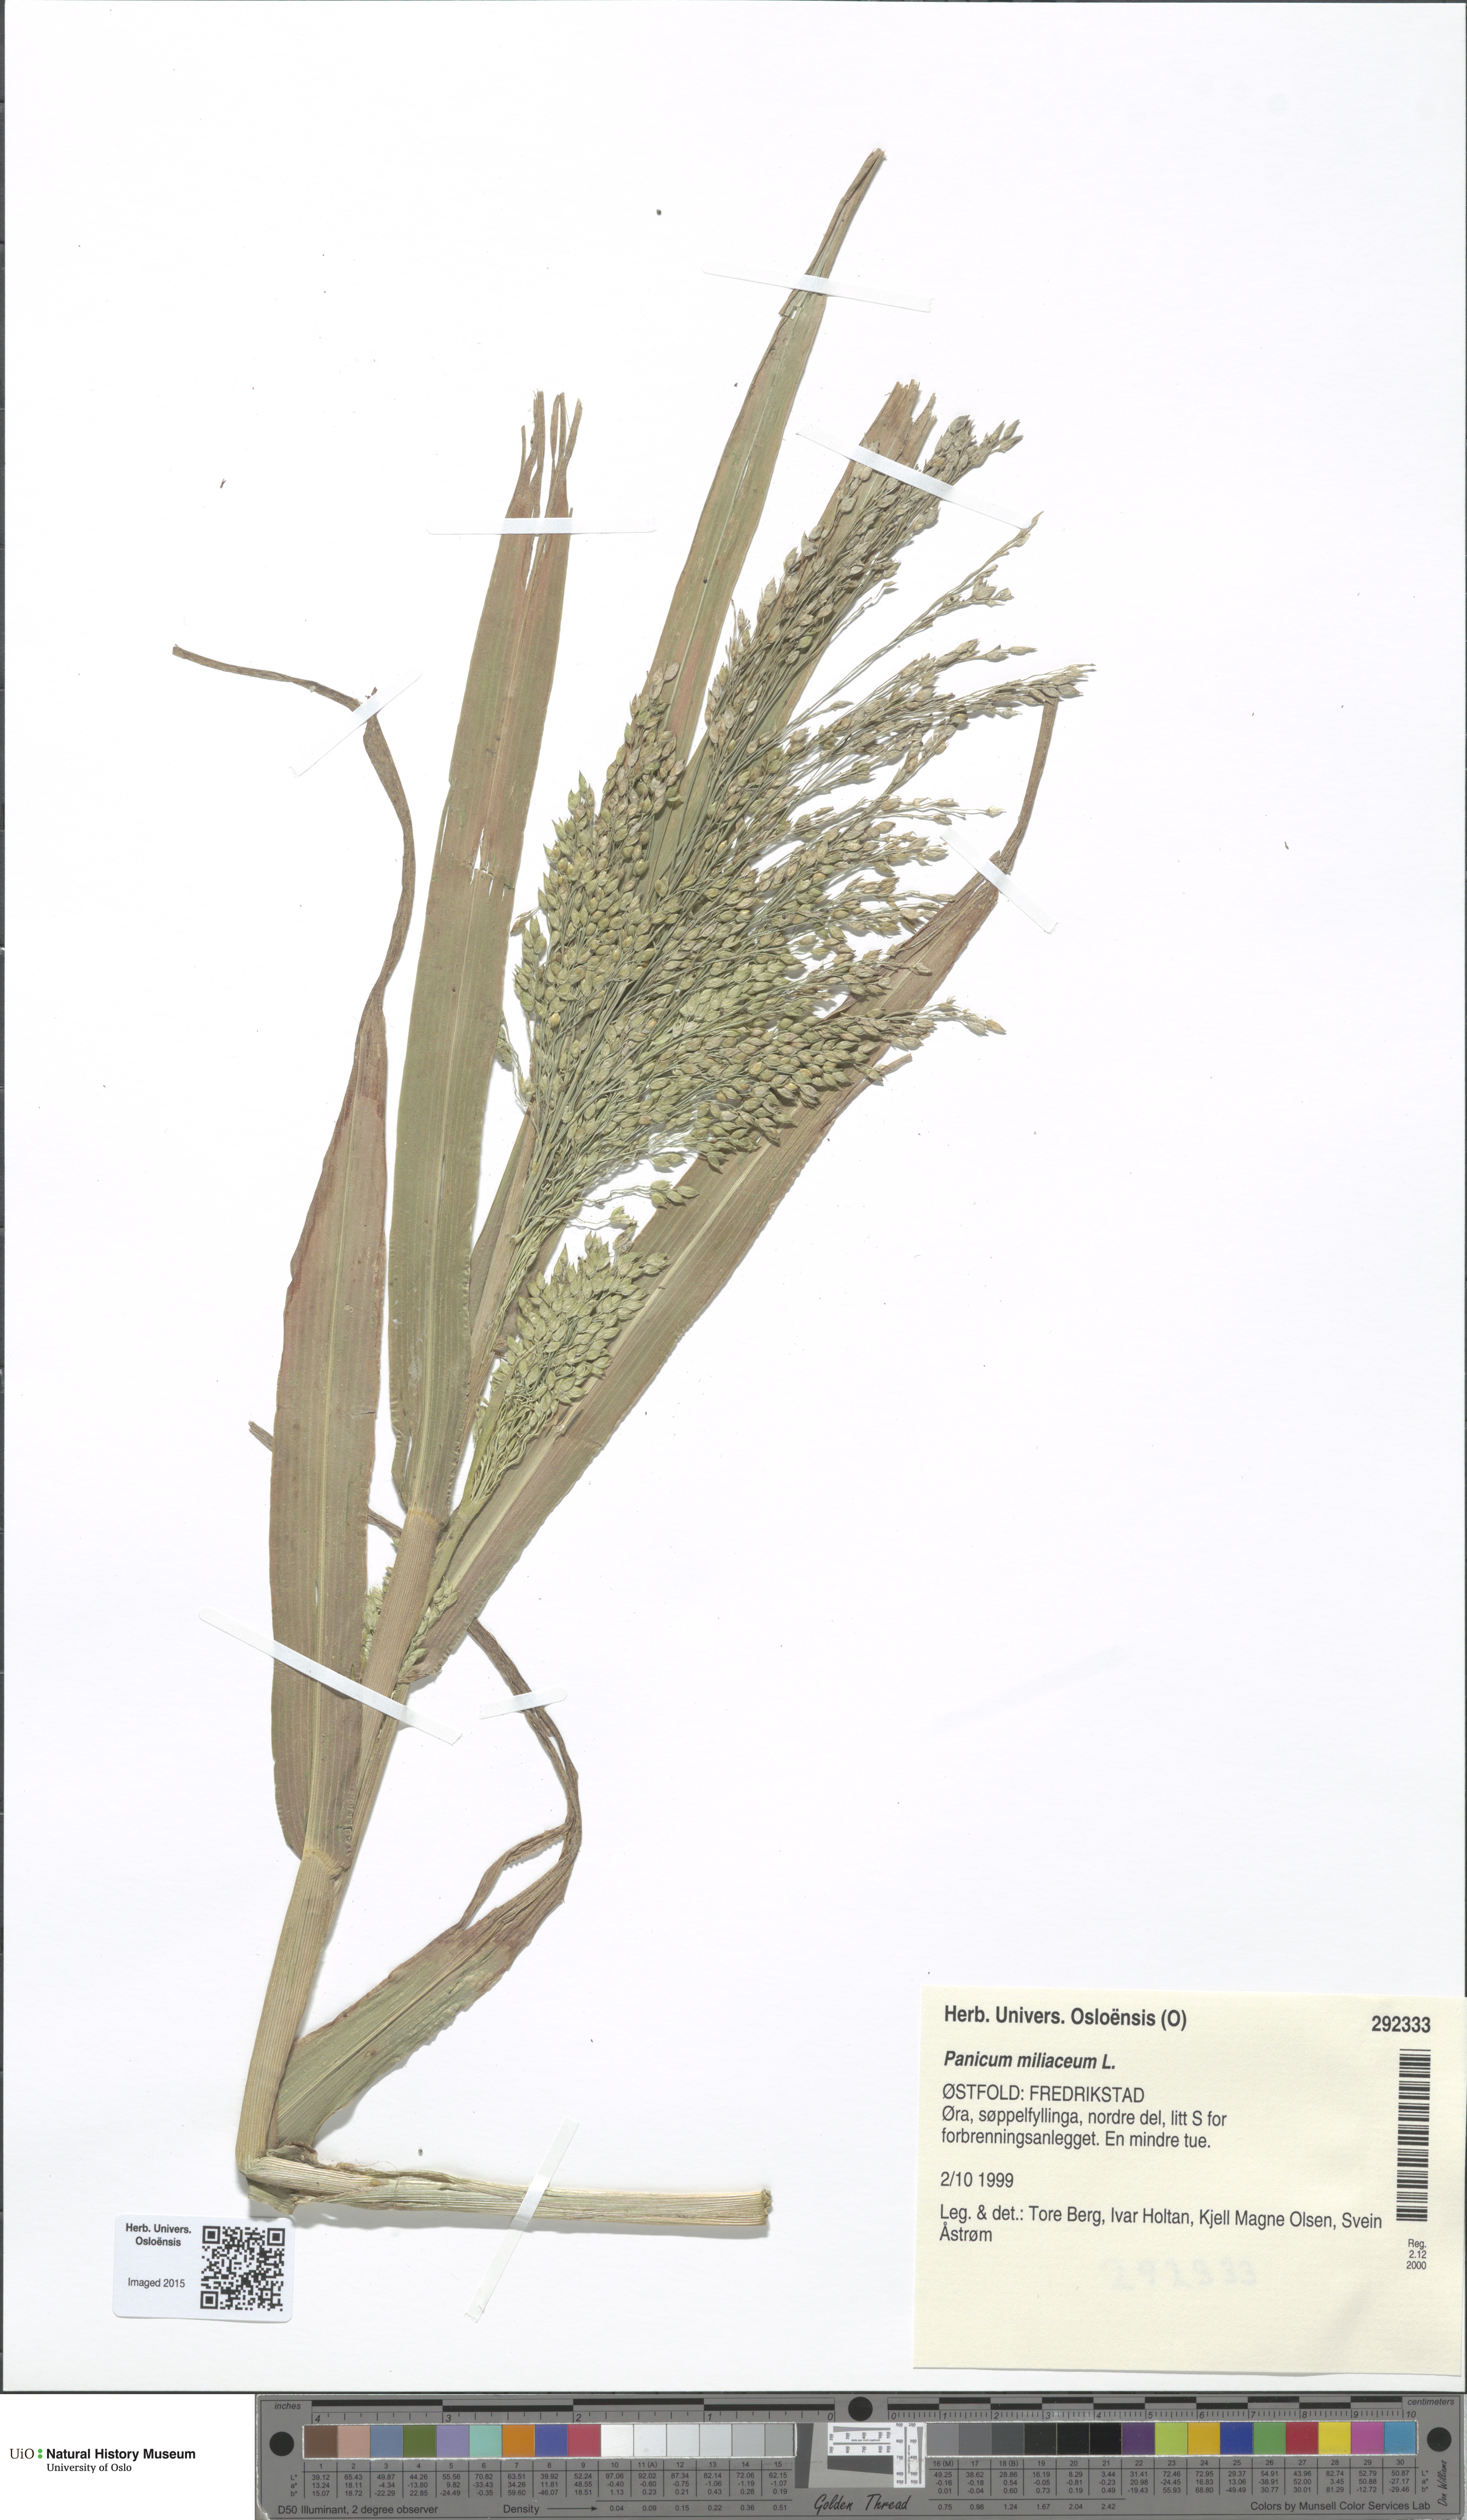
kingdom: Plantae
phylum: Tracheophyta
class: Liliopsida
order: Poales
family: Poaceae
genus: Panicum
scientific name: Panicum miliaceum
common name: Common millet
